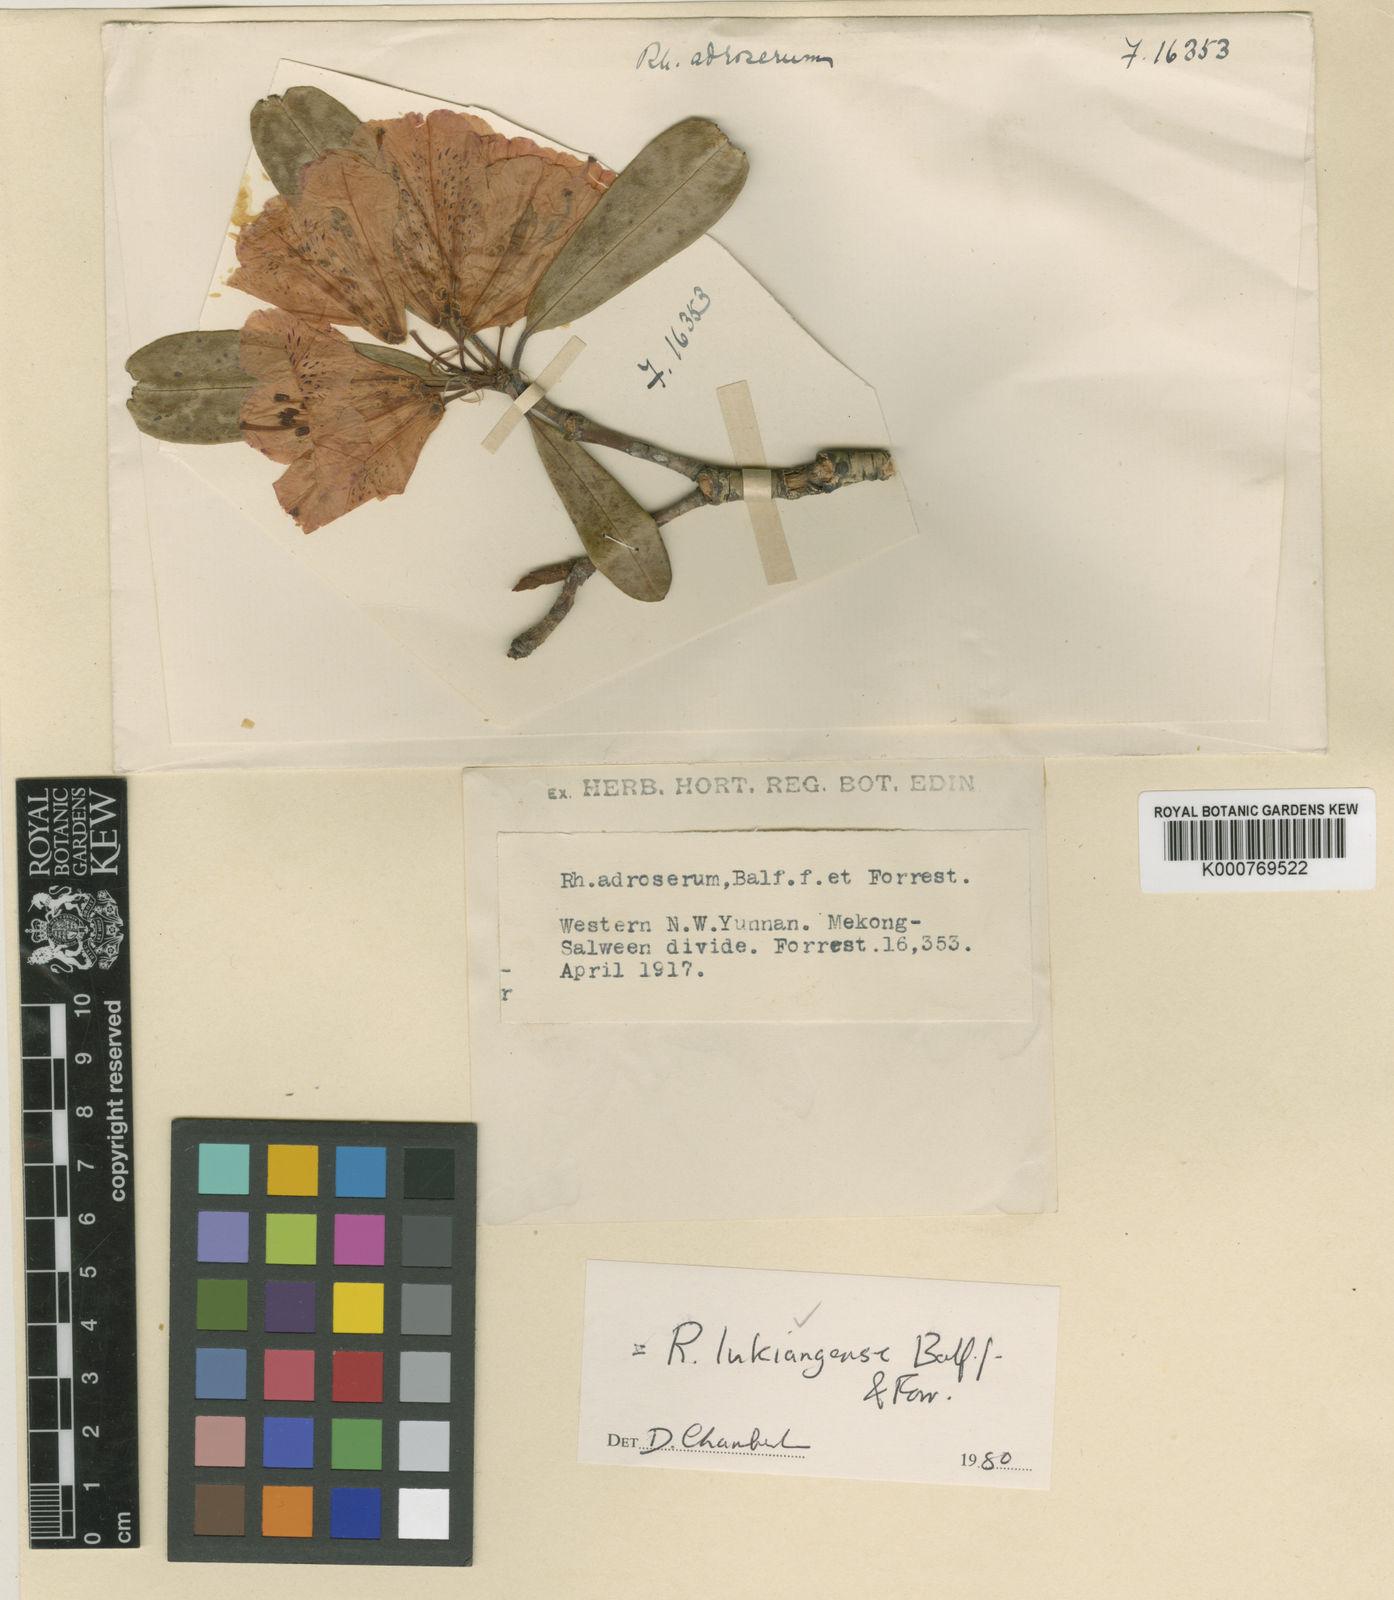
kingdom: Plantae
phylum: Tracheophyta
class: Magnoliopsida
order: Ericales
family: Ericaceae
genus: Rhododendron
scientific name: Rhododendron
